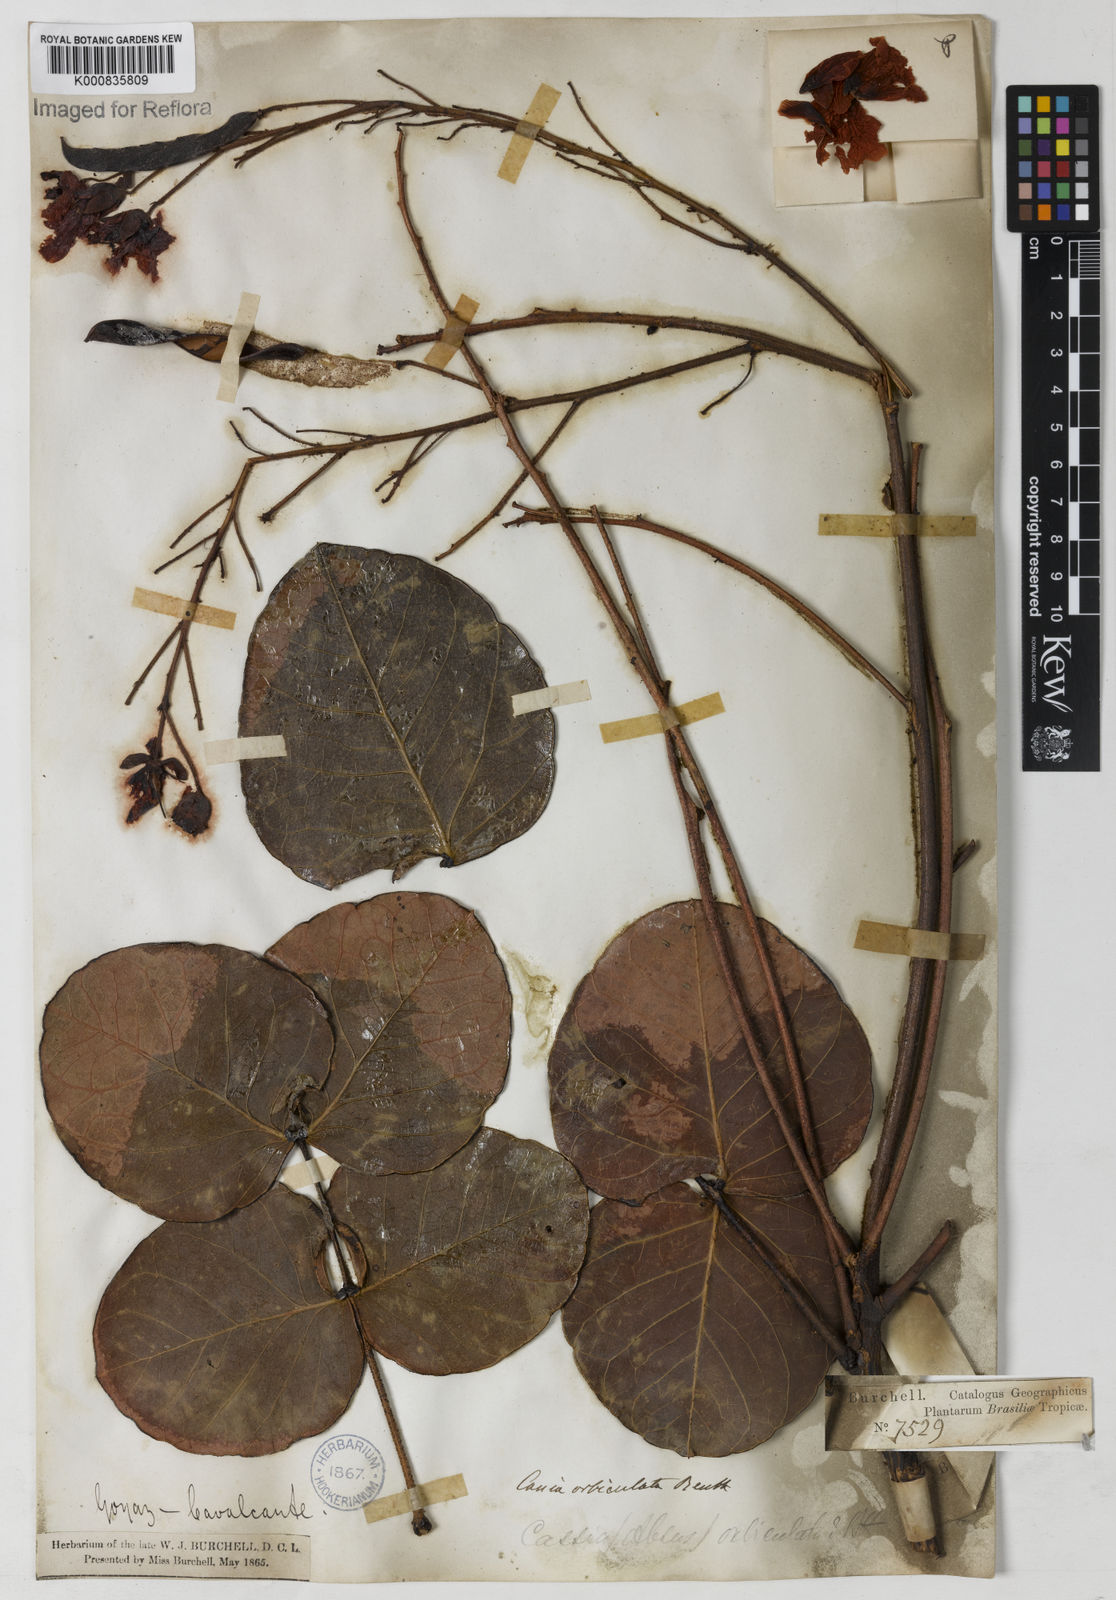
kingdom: Plantae
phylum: Tracheophyta
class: Magnoliopsida
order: Fabales
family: Fabaceae
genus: Chamaecrista
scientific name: Chamaecrista orbiculata
